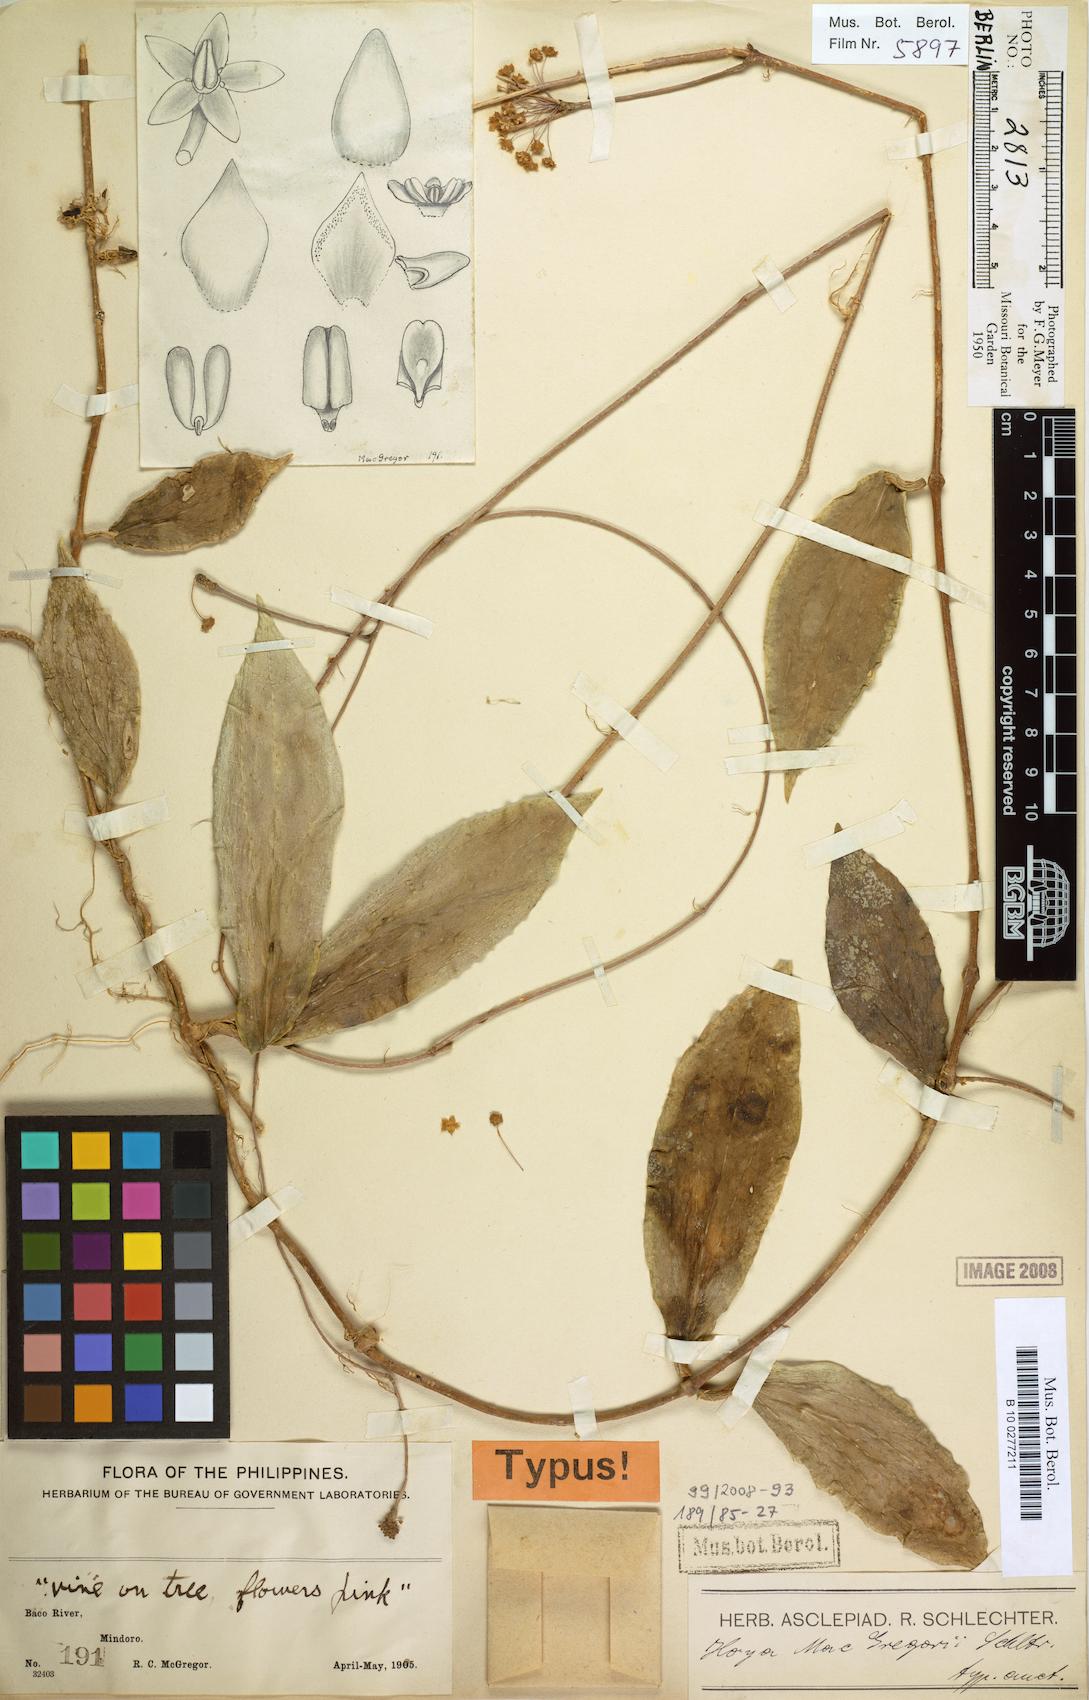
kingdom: Plantae
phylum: Tracheophyta
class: Magnoliopsida
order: Gentianales
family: Apocynaceae
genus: Hoya
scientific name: Hoya mcgregorii
